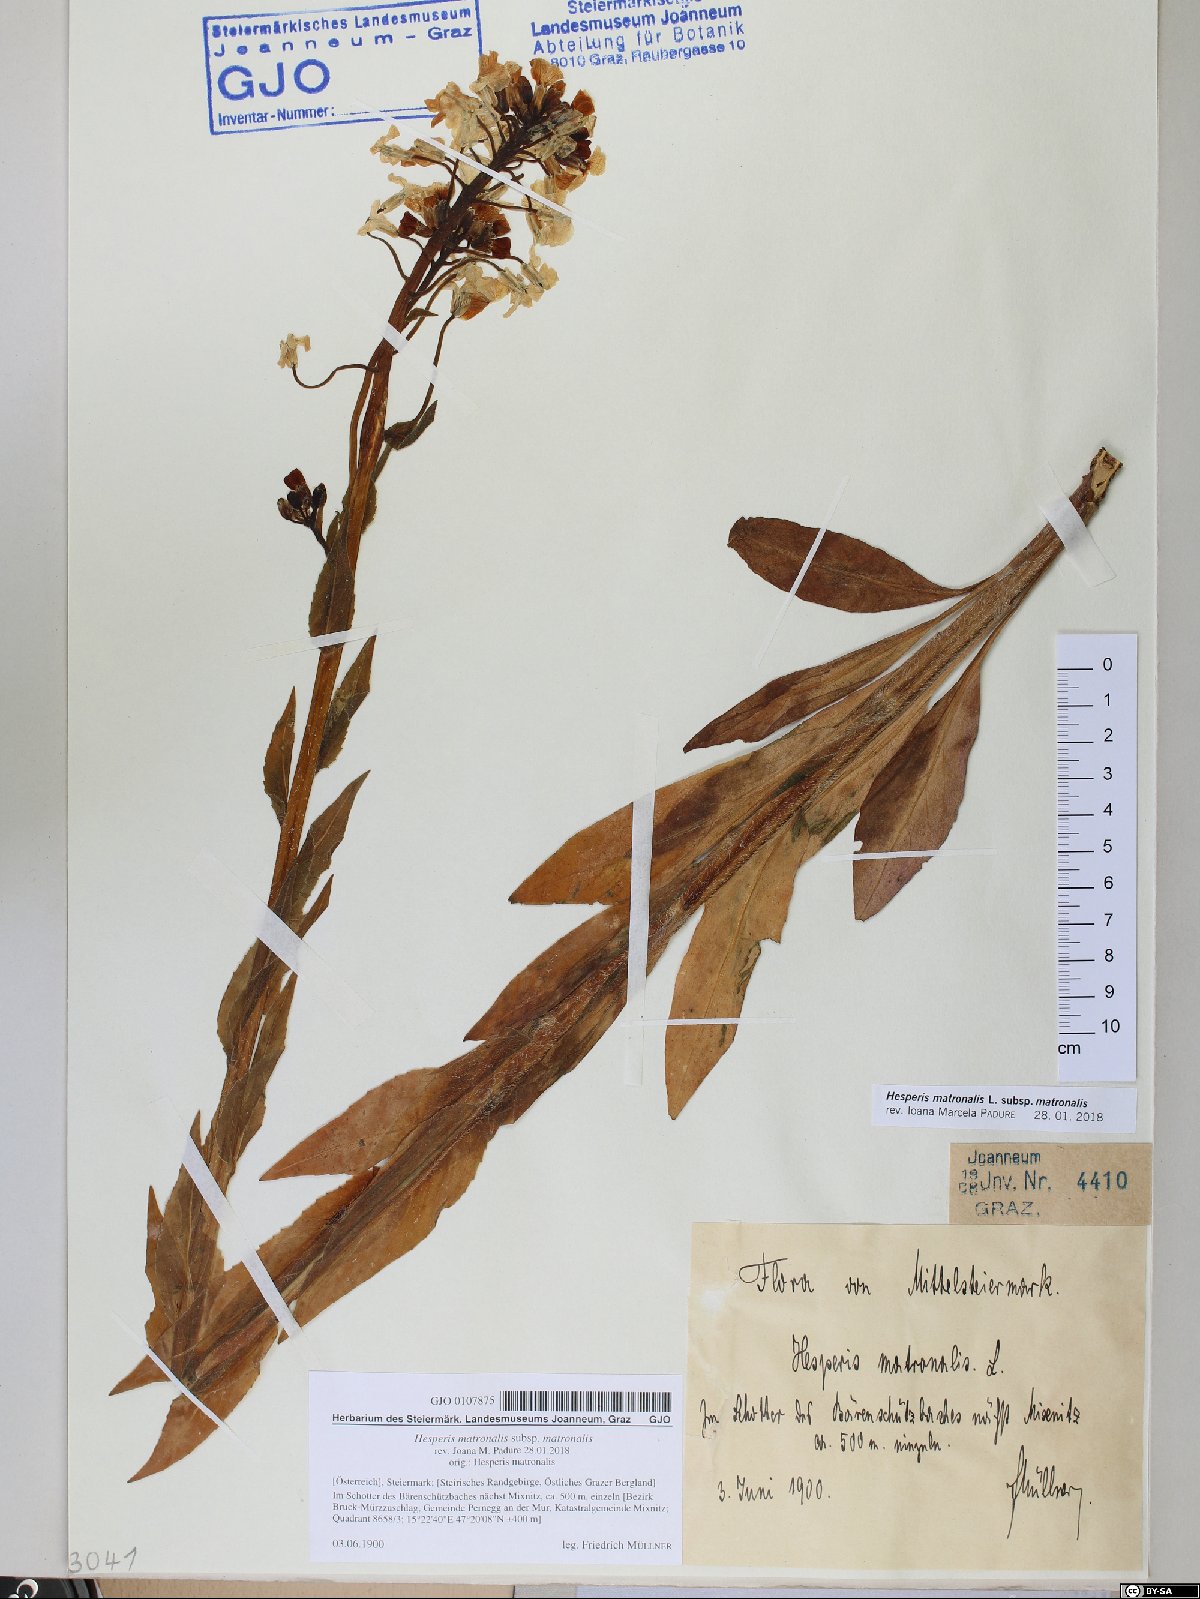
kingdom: Plantae
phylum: Tracheophyta
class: Magnoliopsida
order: Brassicales
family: Brassicaceae
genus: Hesperis
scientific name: Hesperis matronalis
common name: Dame's-violet
